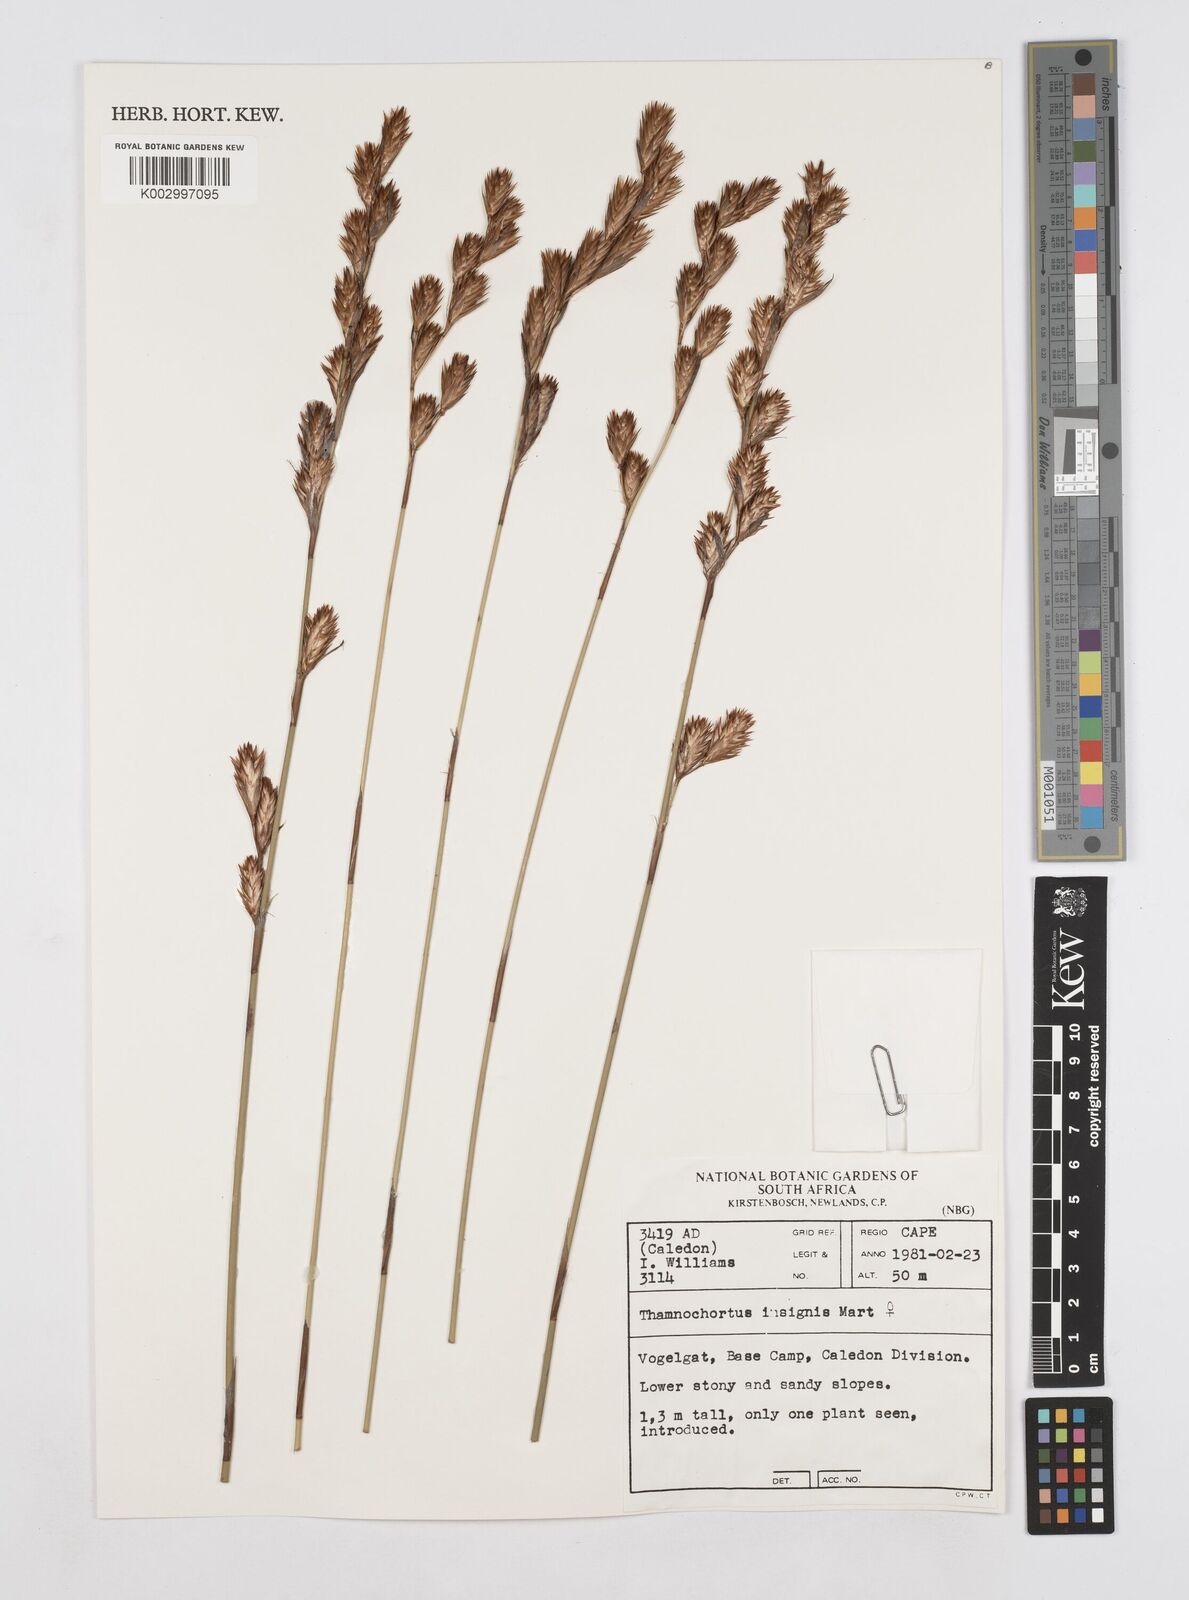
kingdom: Plantae
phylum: Tracheophyta
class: Liliopsida
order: Poales
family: Restionaceae
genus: Thamnochortus
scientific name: Thamnochortus insignis
